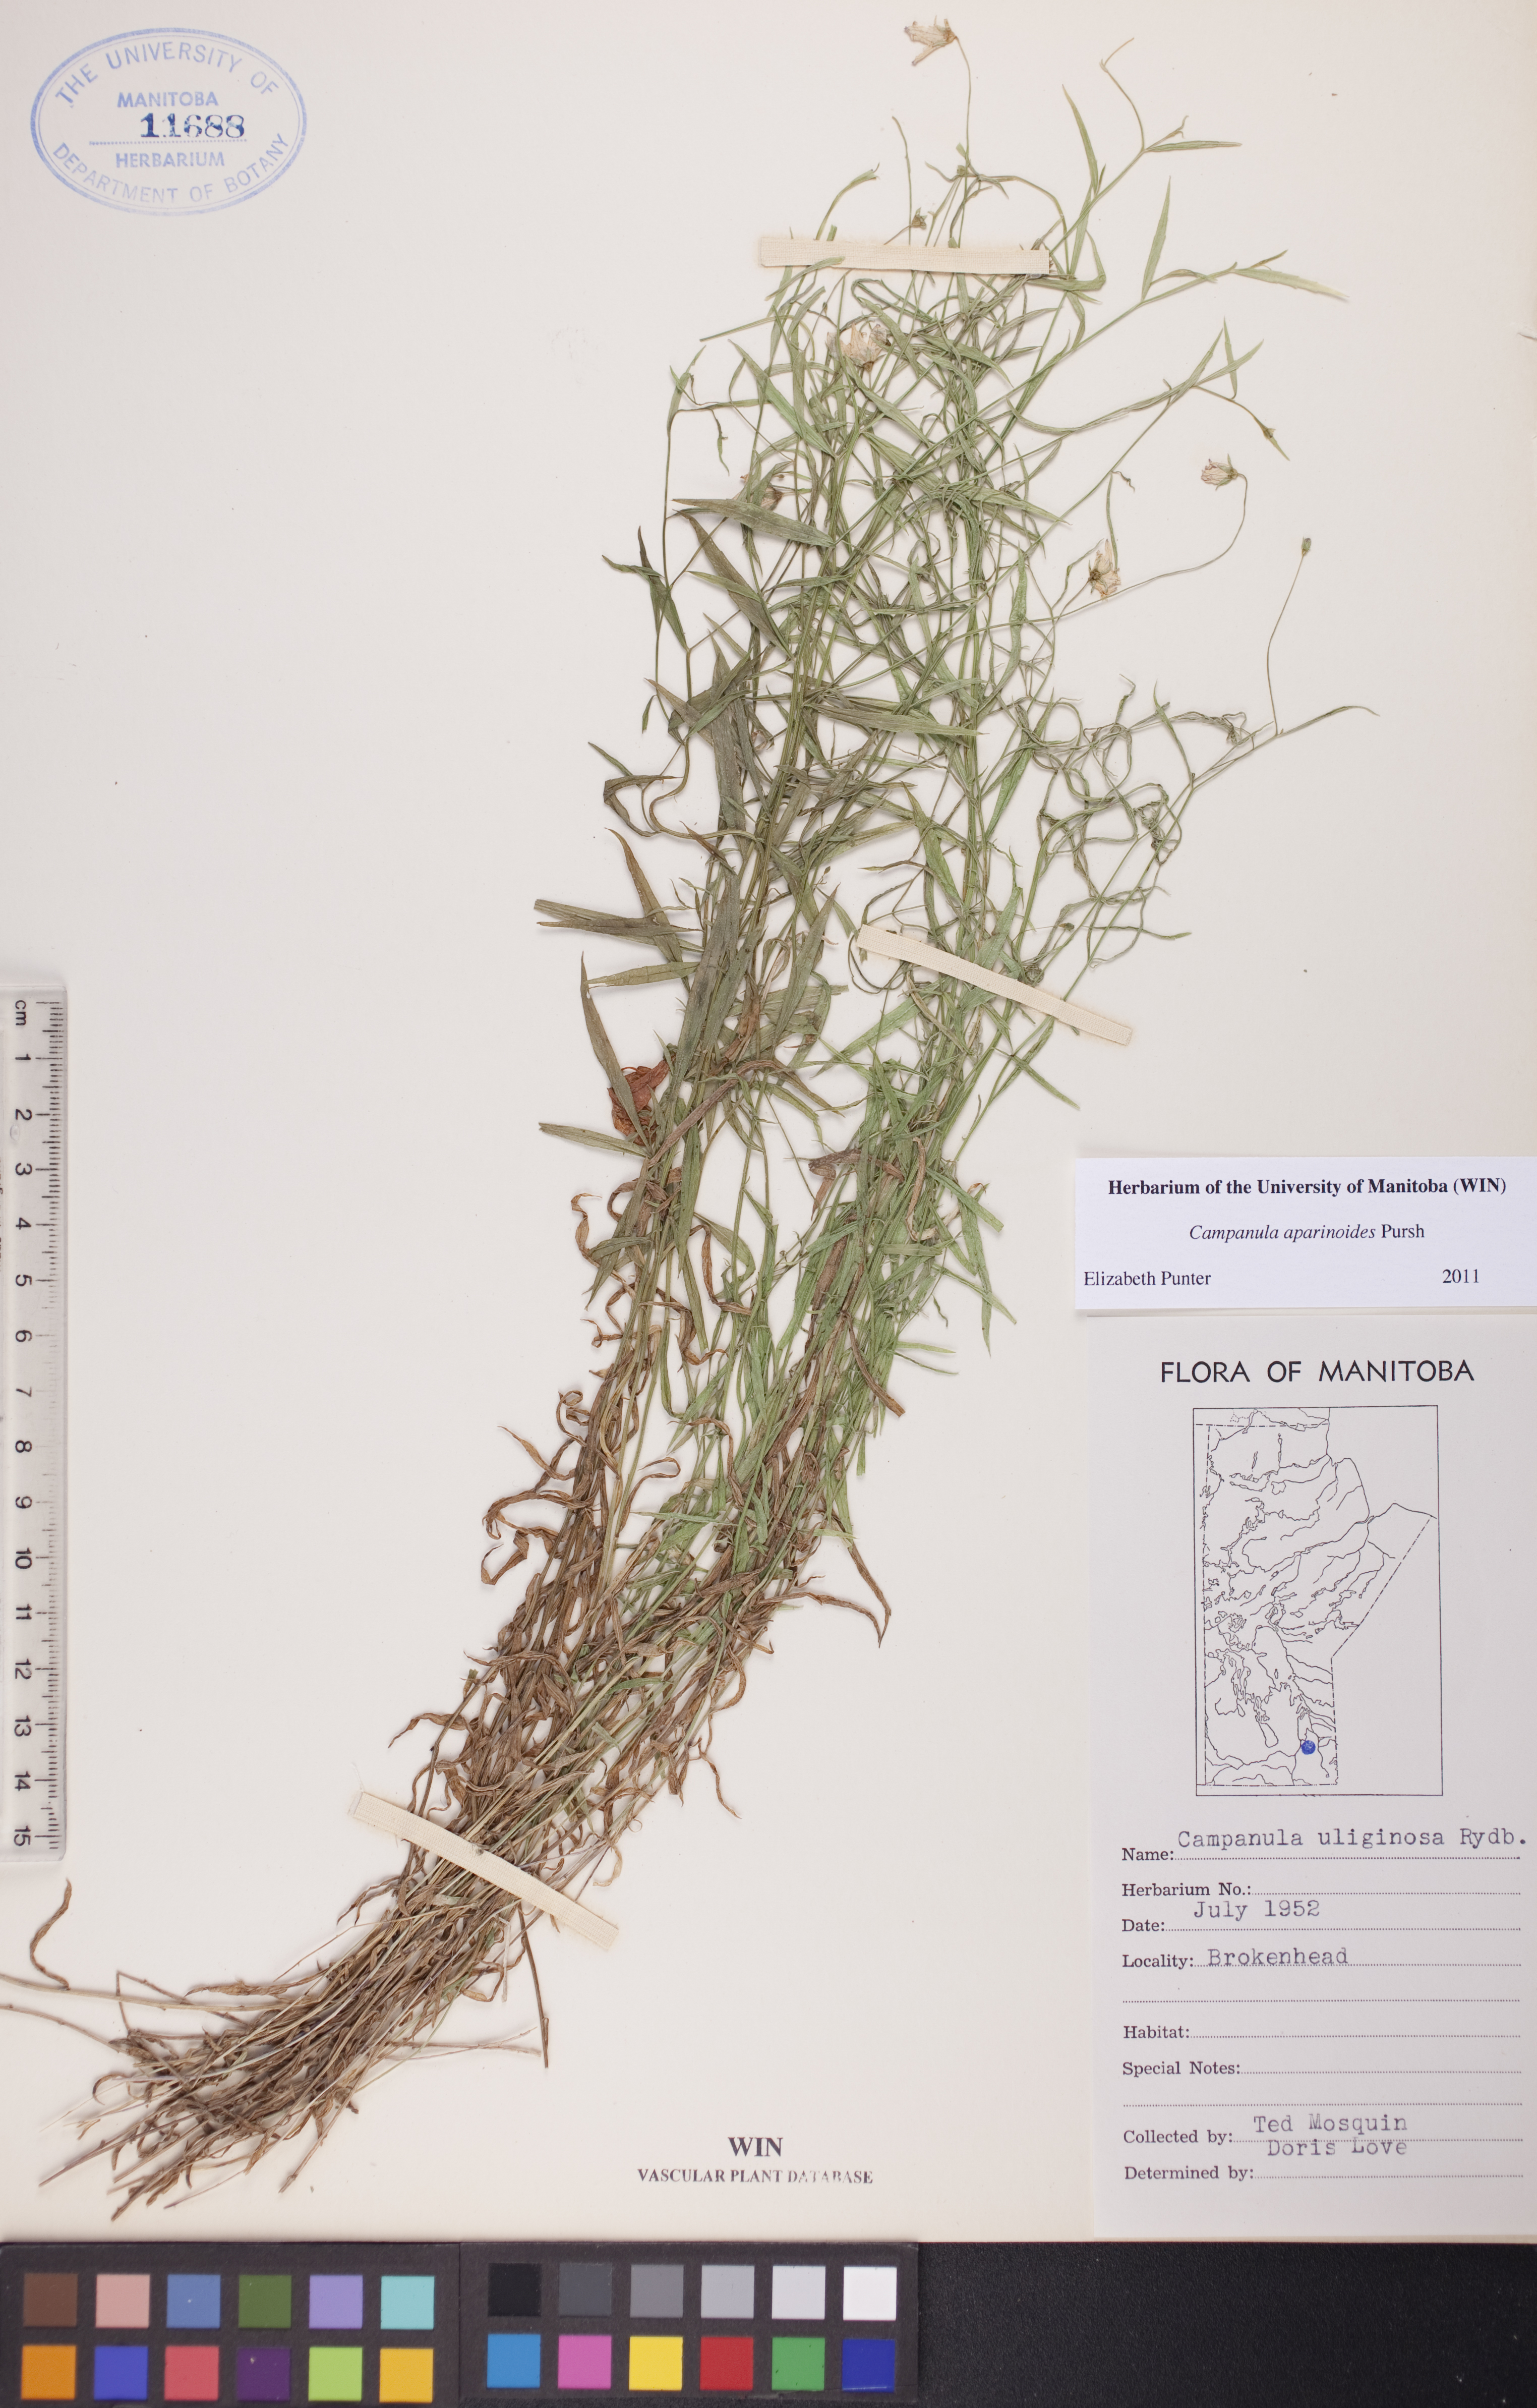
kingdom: Plantae
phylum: Tracheophyta
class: Magnoliopsida
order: Asterales
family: Campanulaceae
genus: Palustricodon
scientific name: Palustricodon aparinoides
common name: Bedstraw bellflower
